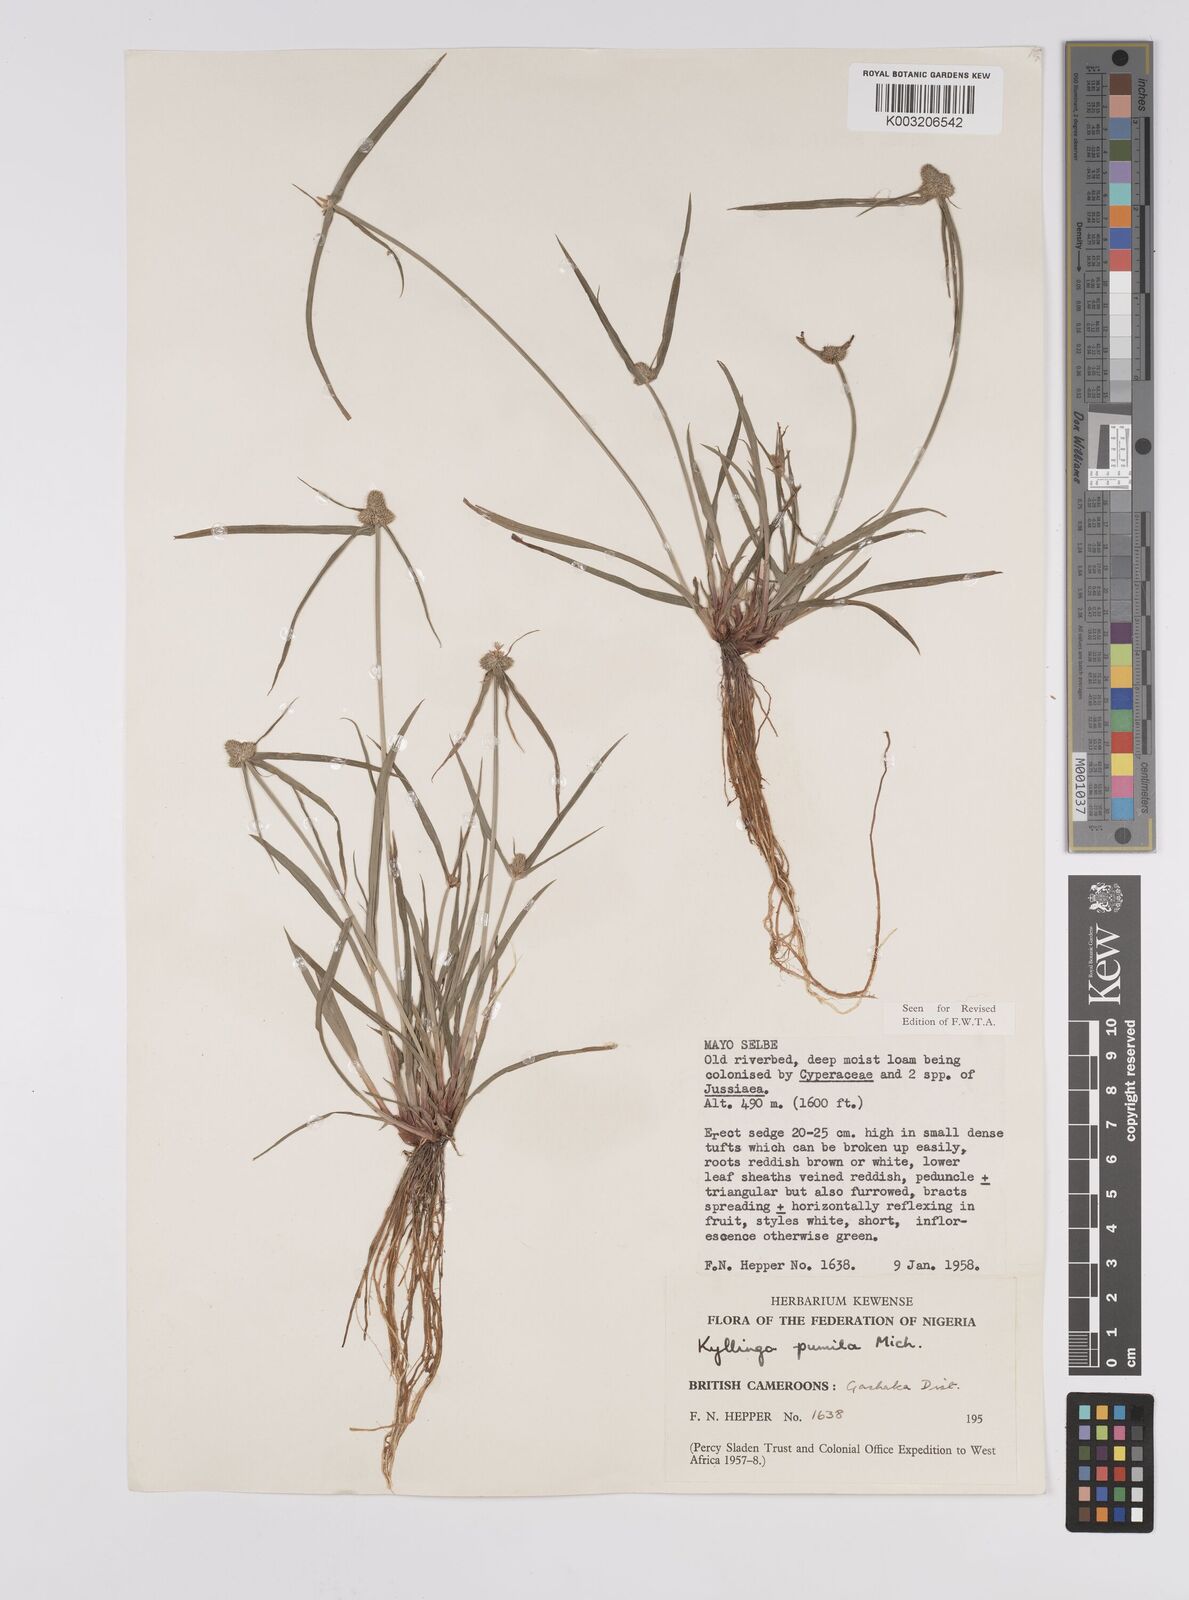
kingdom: Plantae
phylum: Tracheophyta
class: Liliopsida
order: Poales
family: Cyperaceae
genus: Cyperus
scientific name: Cyperus
